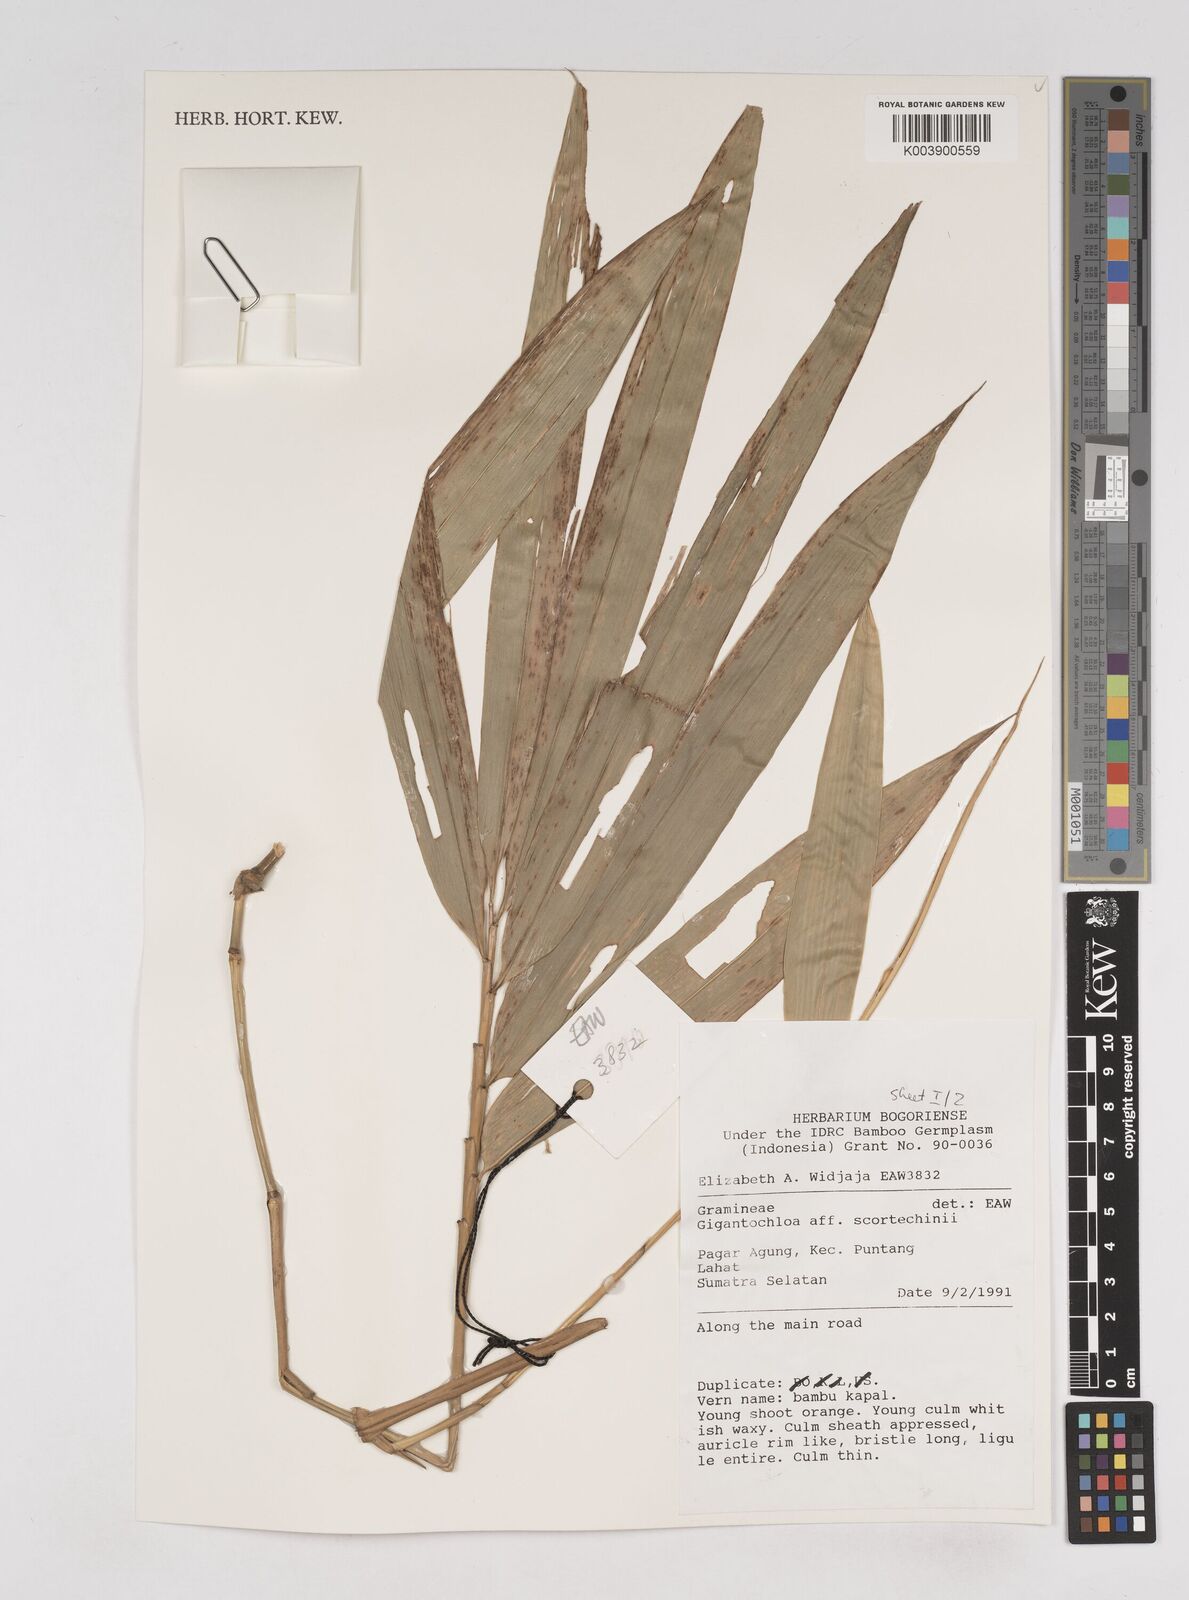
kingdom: Plantae
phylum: Tracheophyta
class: Liliopsida
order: Poales
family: Poaceae
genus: Gigantochloa
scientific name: Gigantochloa scortechinii
